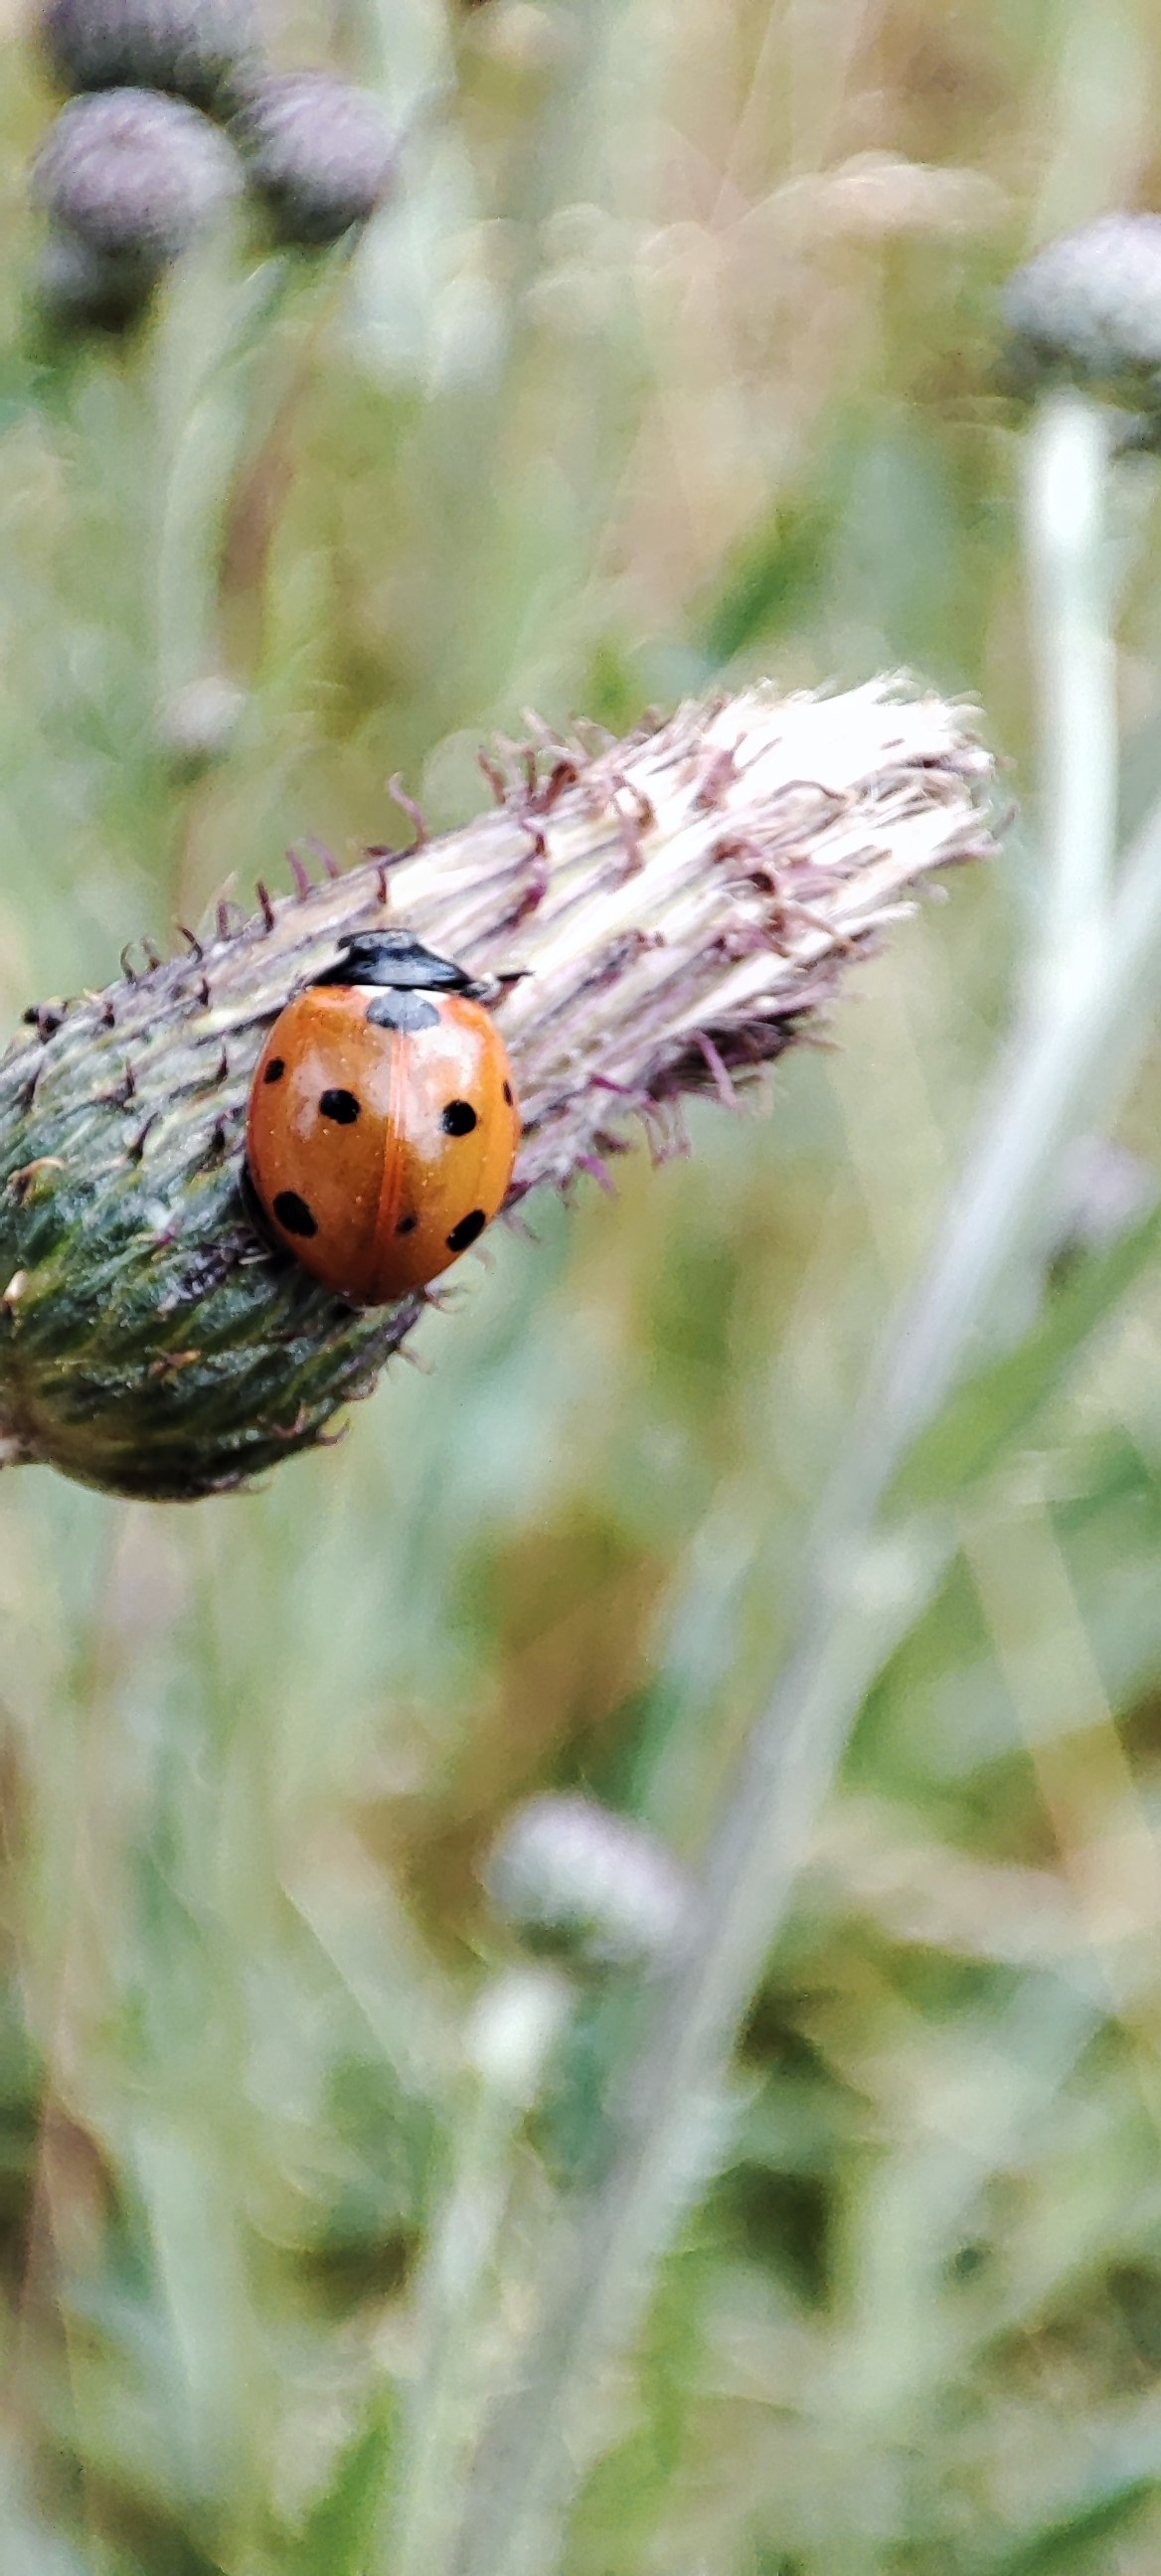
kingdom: Animalia
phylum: Arthropoda
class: Insecta
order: Coleoptera
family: Coccinellidae
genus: Coccinella
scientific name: Coccinella septempunctata
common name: Syvplettet mariehøne
